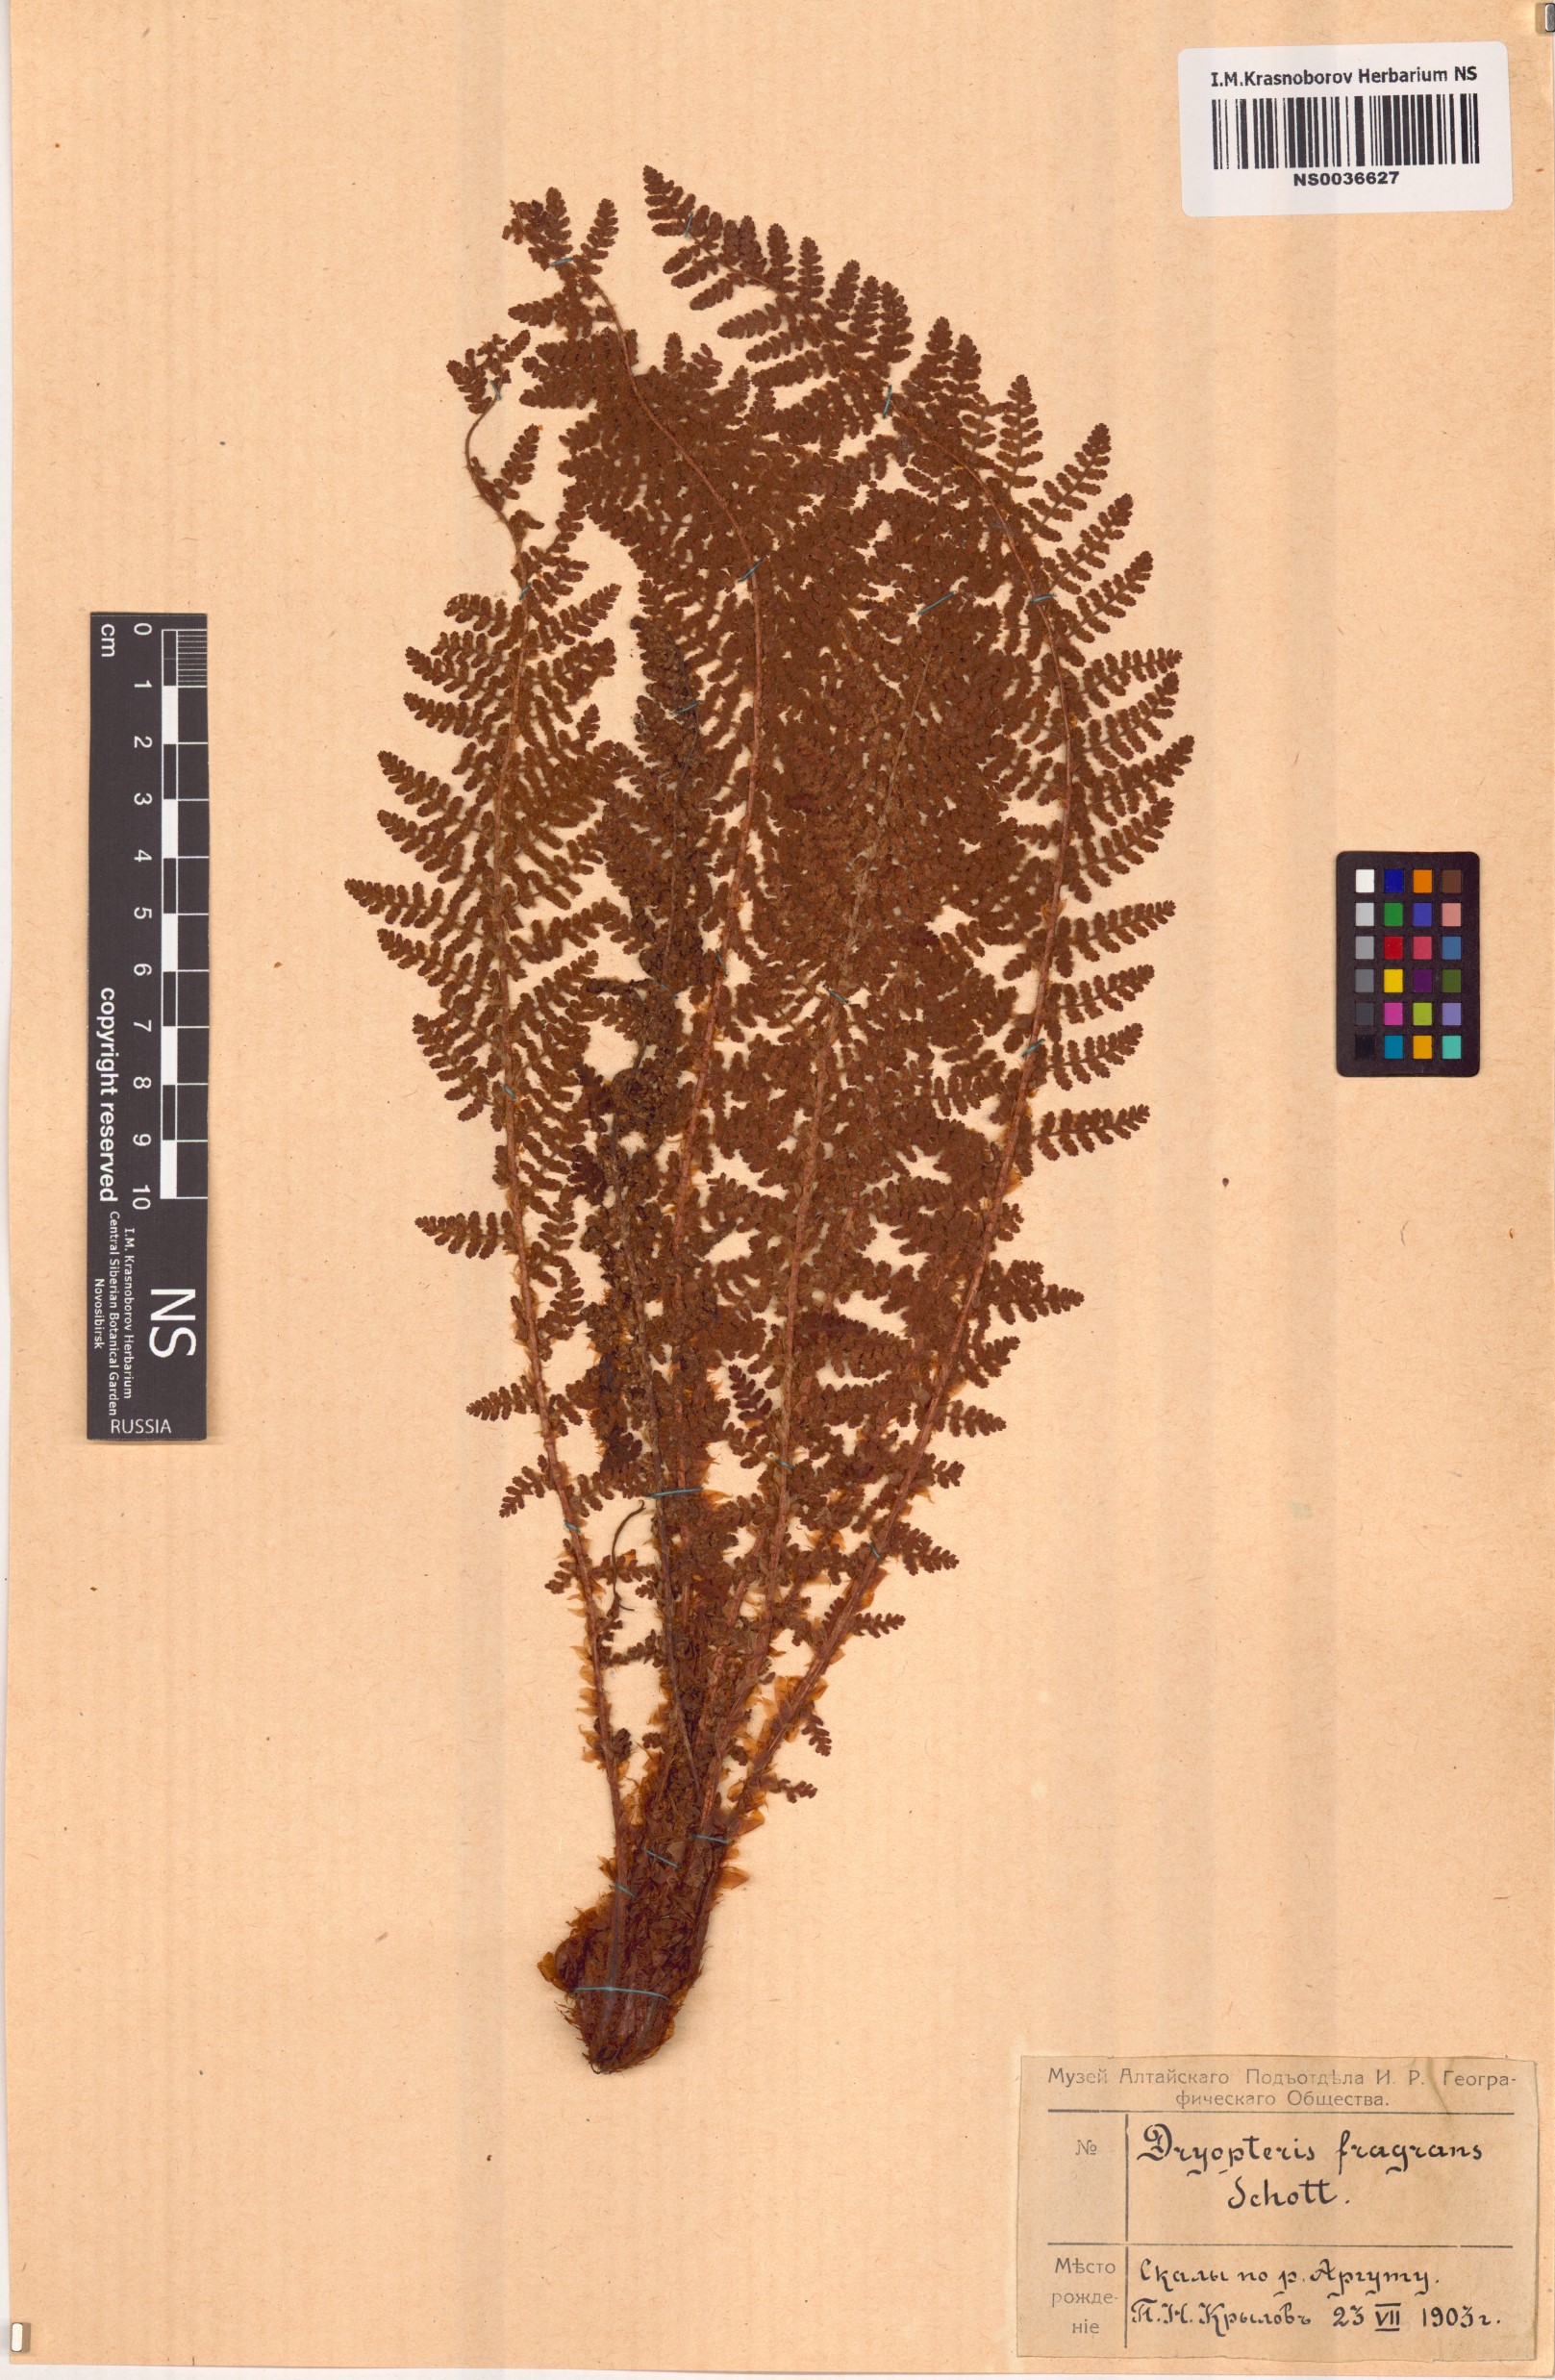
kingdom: Plantae
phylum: Tracheophyta
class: Polypodiopsida
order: Polypodiales
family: Dryopteridaceae
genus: Dryopteris
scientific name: Dryopteris fragrans
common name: Fragrant wood fern
